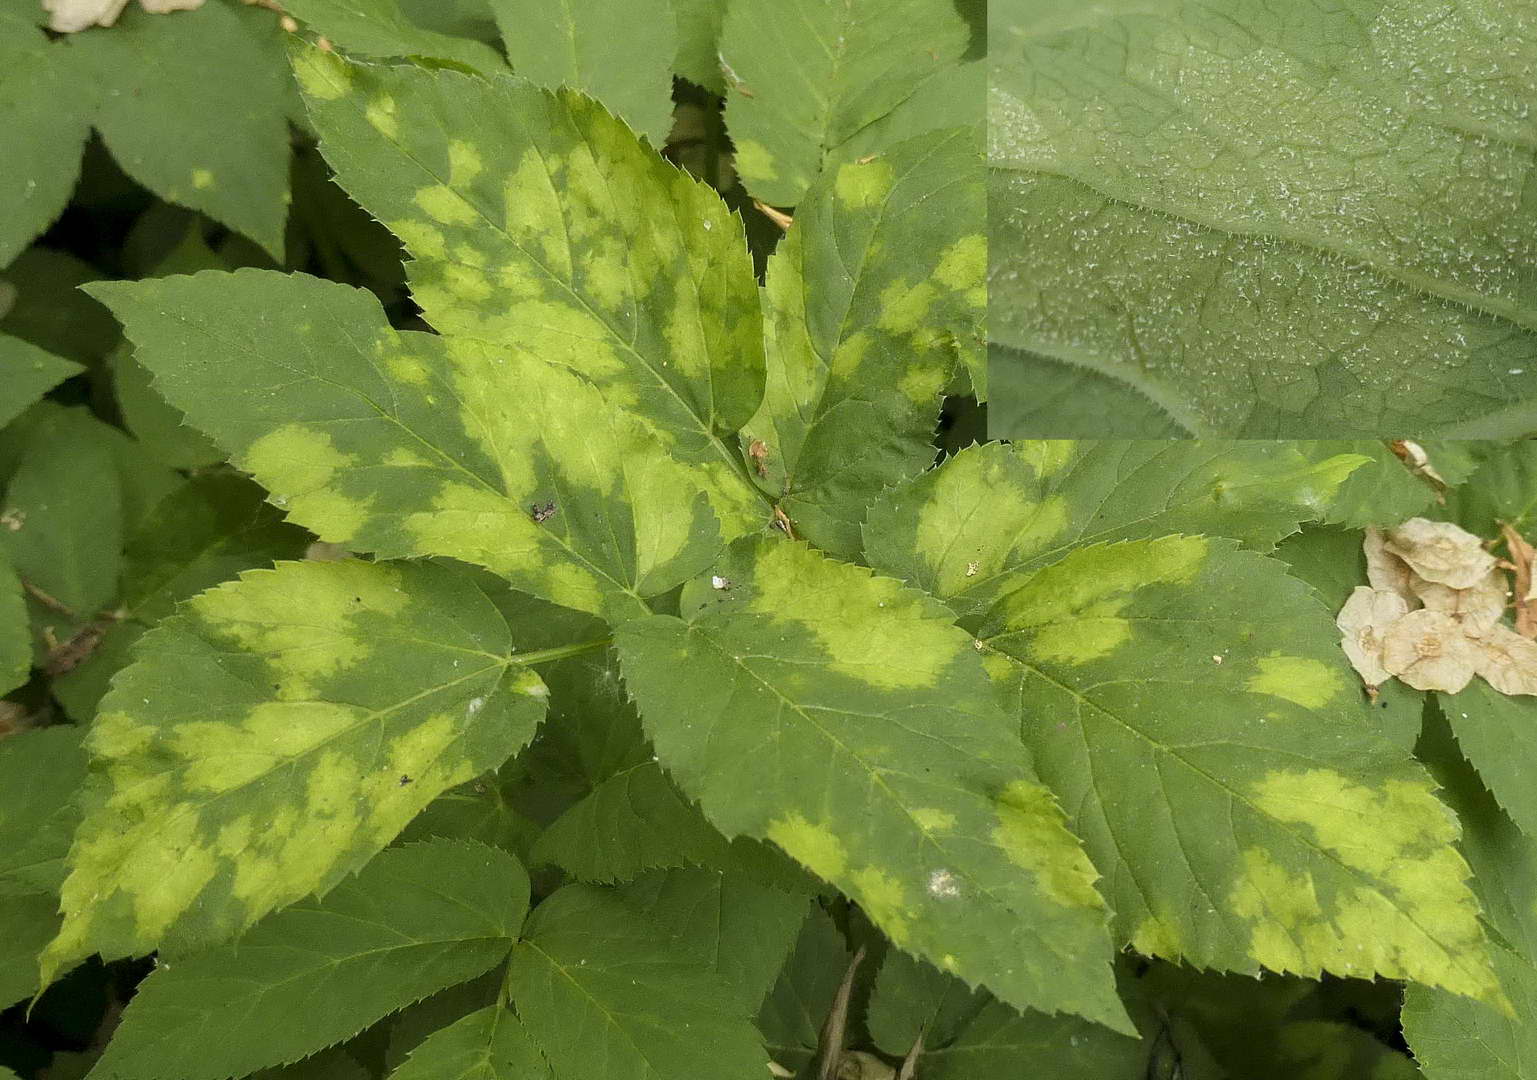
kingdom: Chromista
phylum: Oomycota
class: Peronosporea
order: Peronosporales
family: Peronosporaceae
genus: Peronospora
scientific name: Peronospora crustosa
